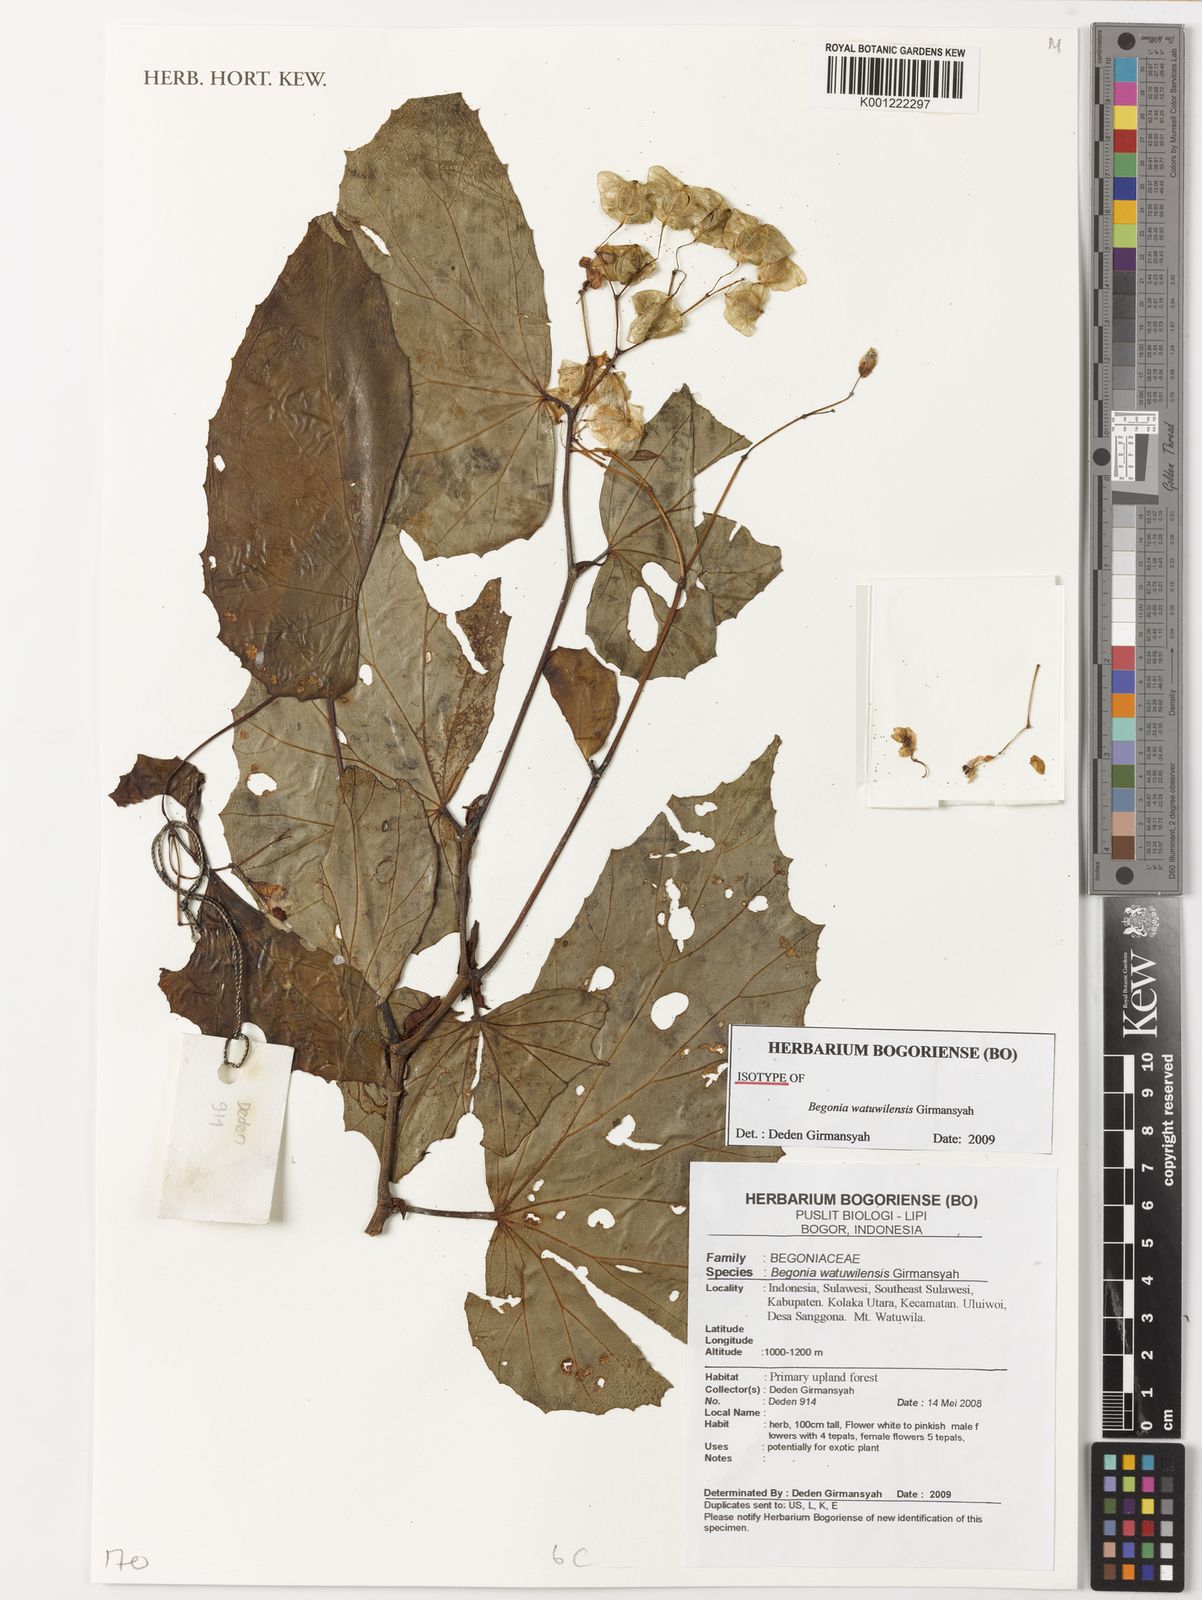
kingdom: Plantae
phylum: Tracheophyta
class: Magnoliopsida
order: Cucurbitales
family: Begoniaceae
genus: Begonia
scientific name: Begonia watuwilensis
